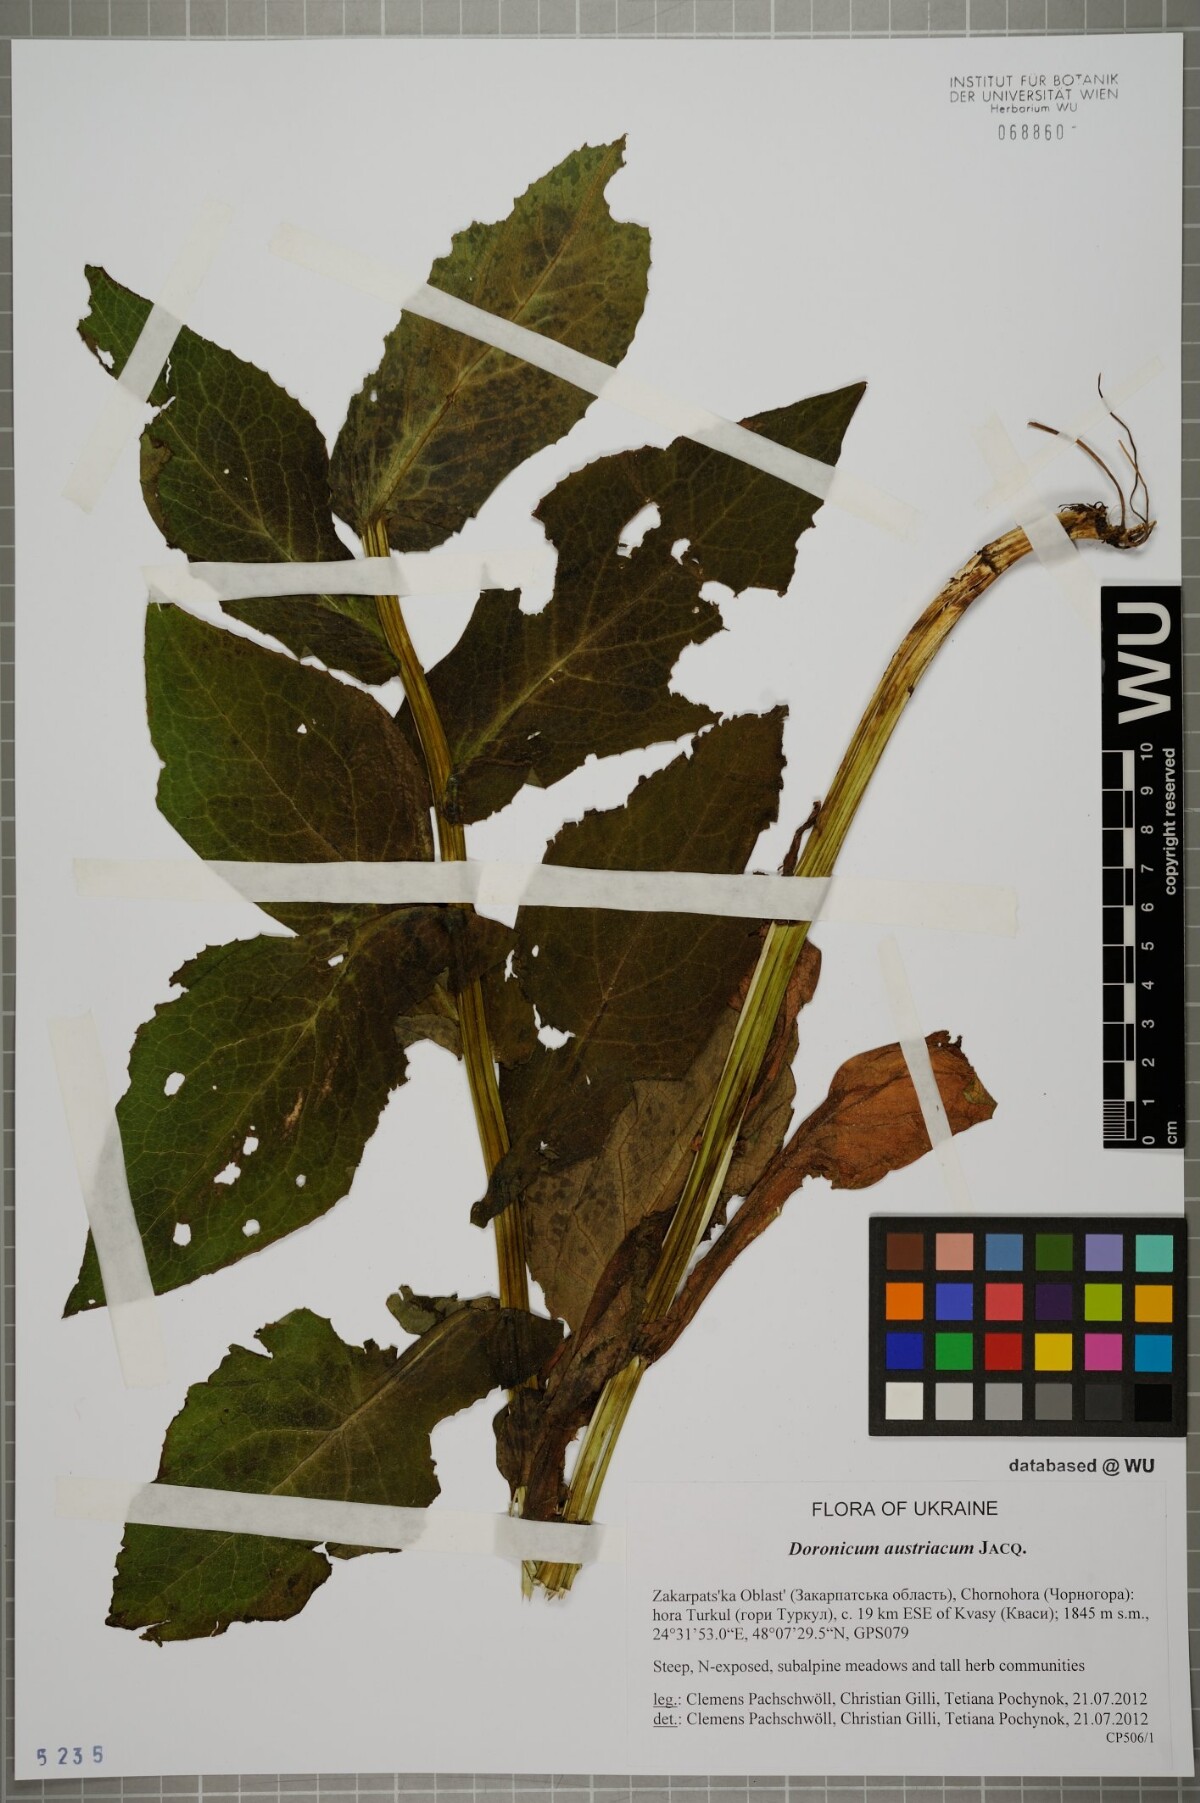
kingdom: Plantae
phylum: Tracheophyta
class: Magnoliopsida
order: Asterales
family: Asteraceae
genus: Doronicum
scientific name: Doronicum austriacum
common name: Austrian leopard's-bane
